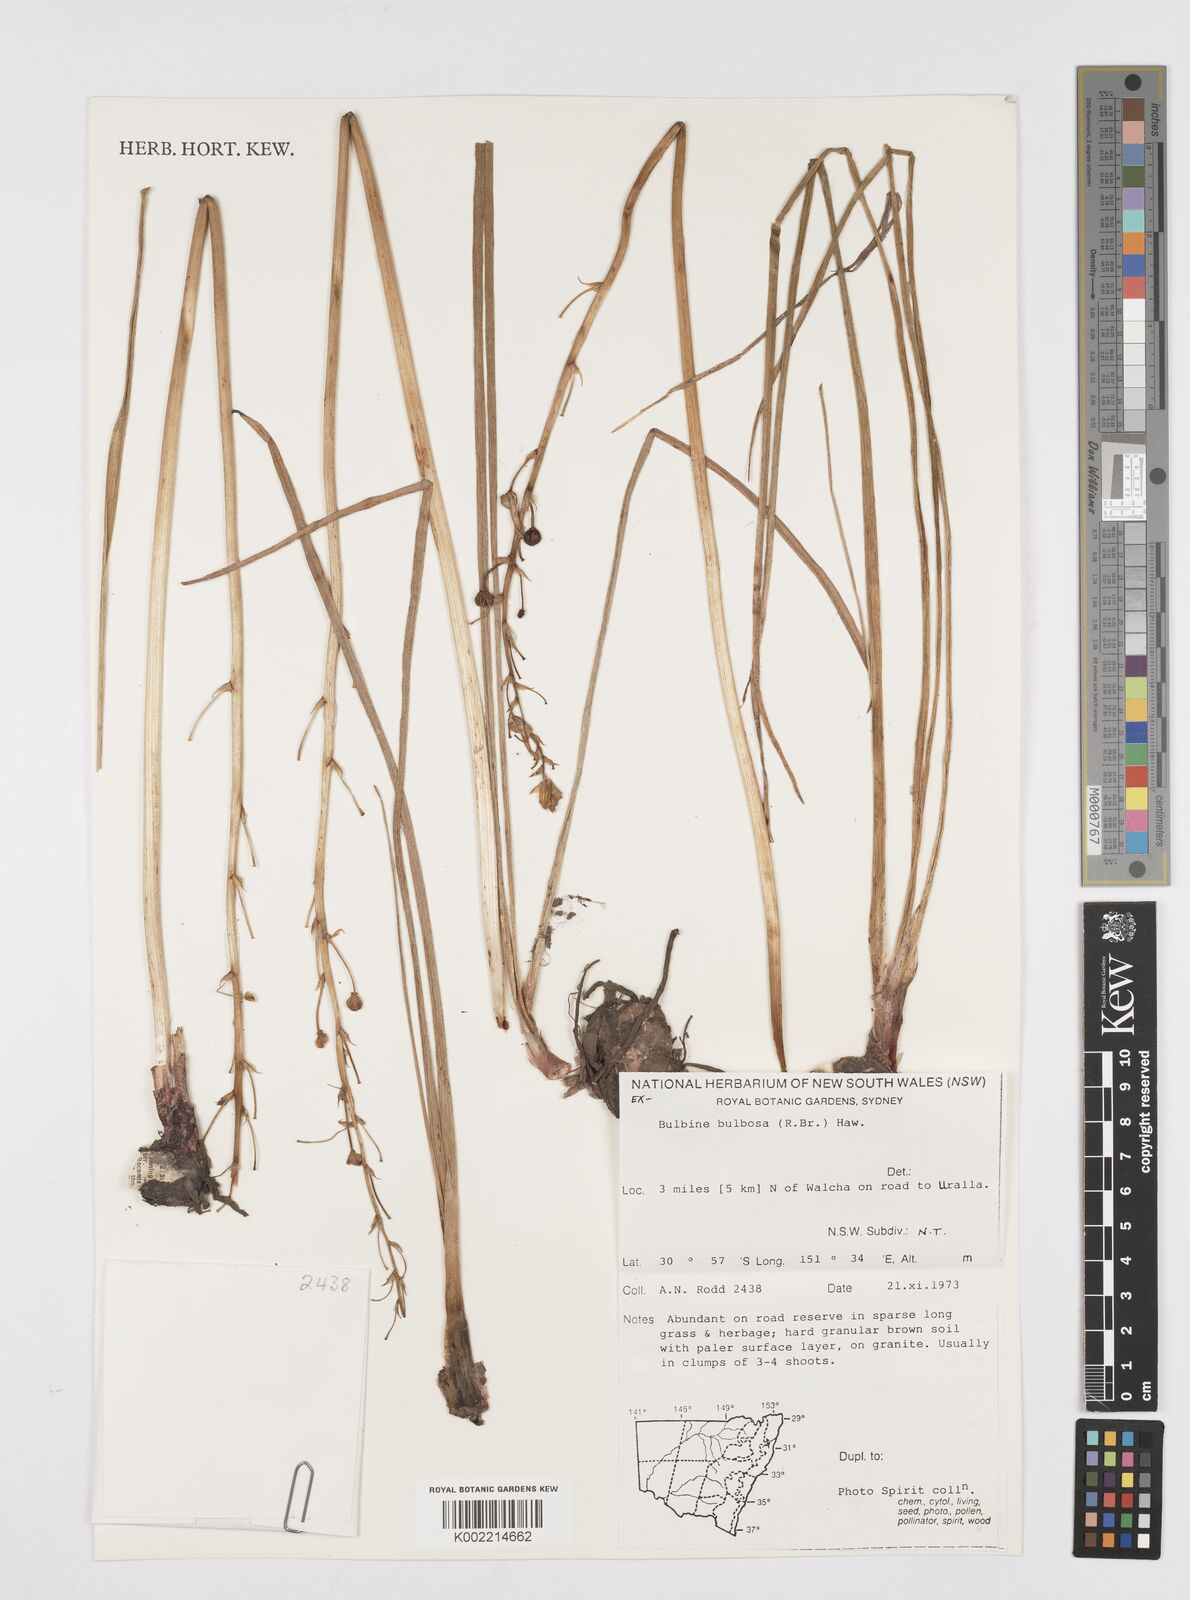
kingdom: Plantae
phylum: Tracheophyta
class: Liliopsida
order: Asparagales
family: Asphodelaceae
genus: Bulbine
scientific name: Bulbine bulbosa
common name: Golden-lily
